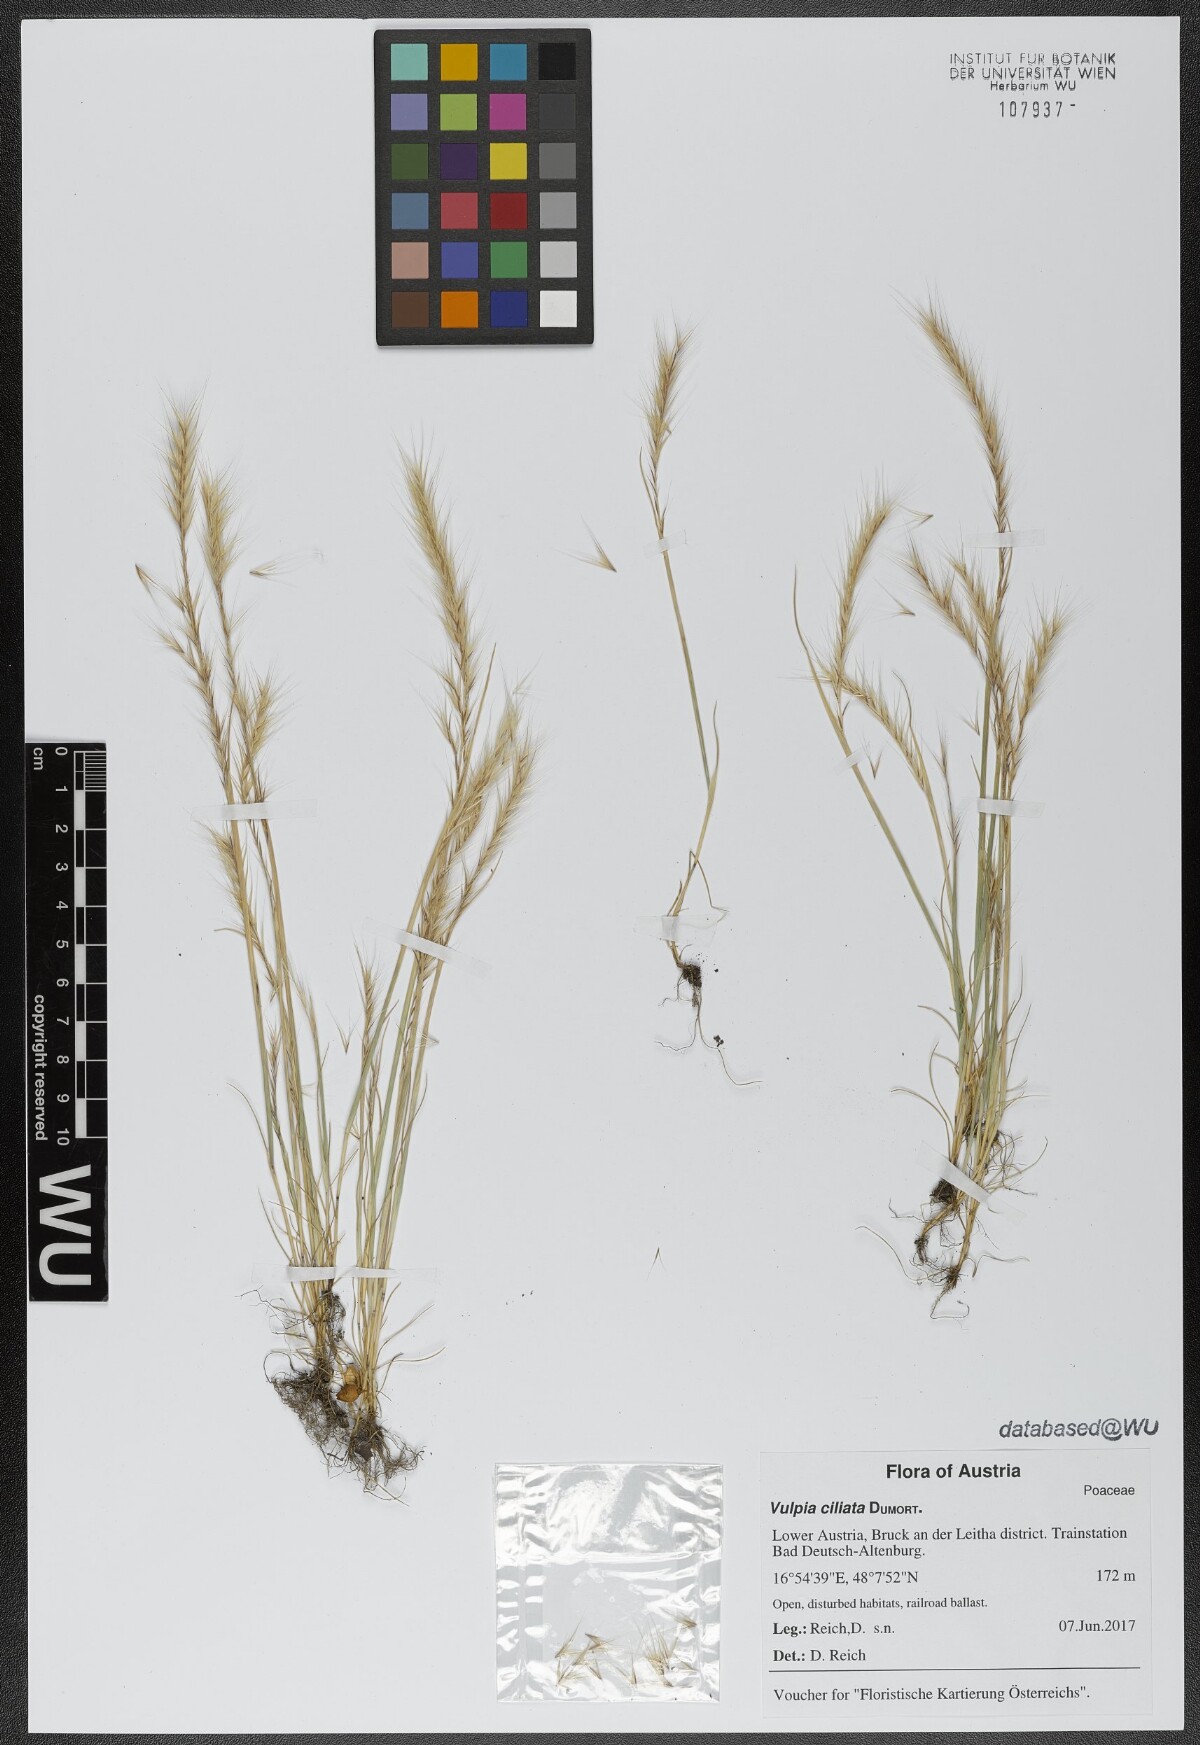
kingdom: Plantae
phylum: Tracheophyta
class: Liliopsida
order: Poales
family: Poaceae
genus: Festuca
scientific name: Festuca ambigua
